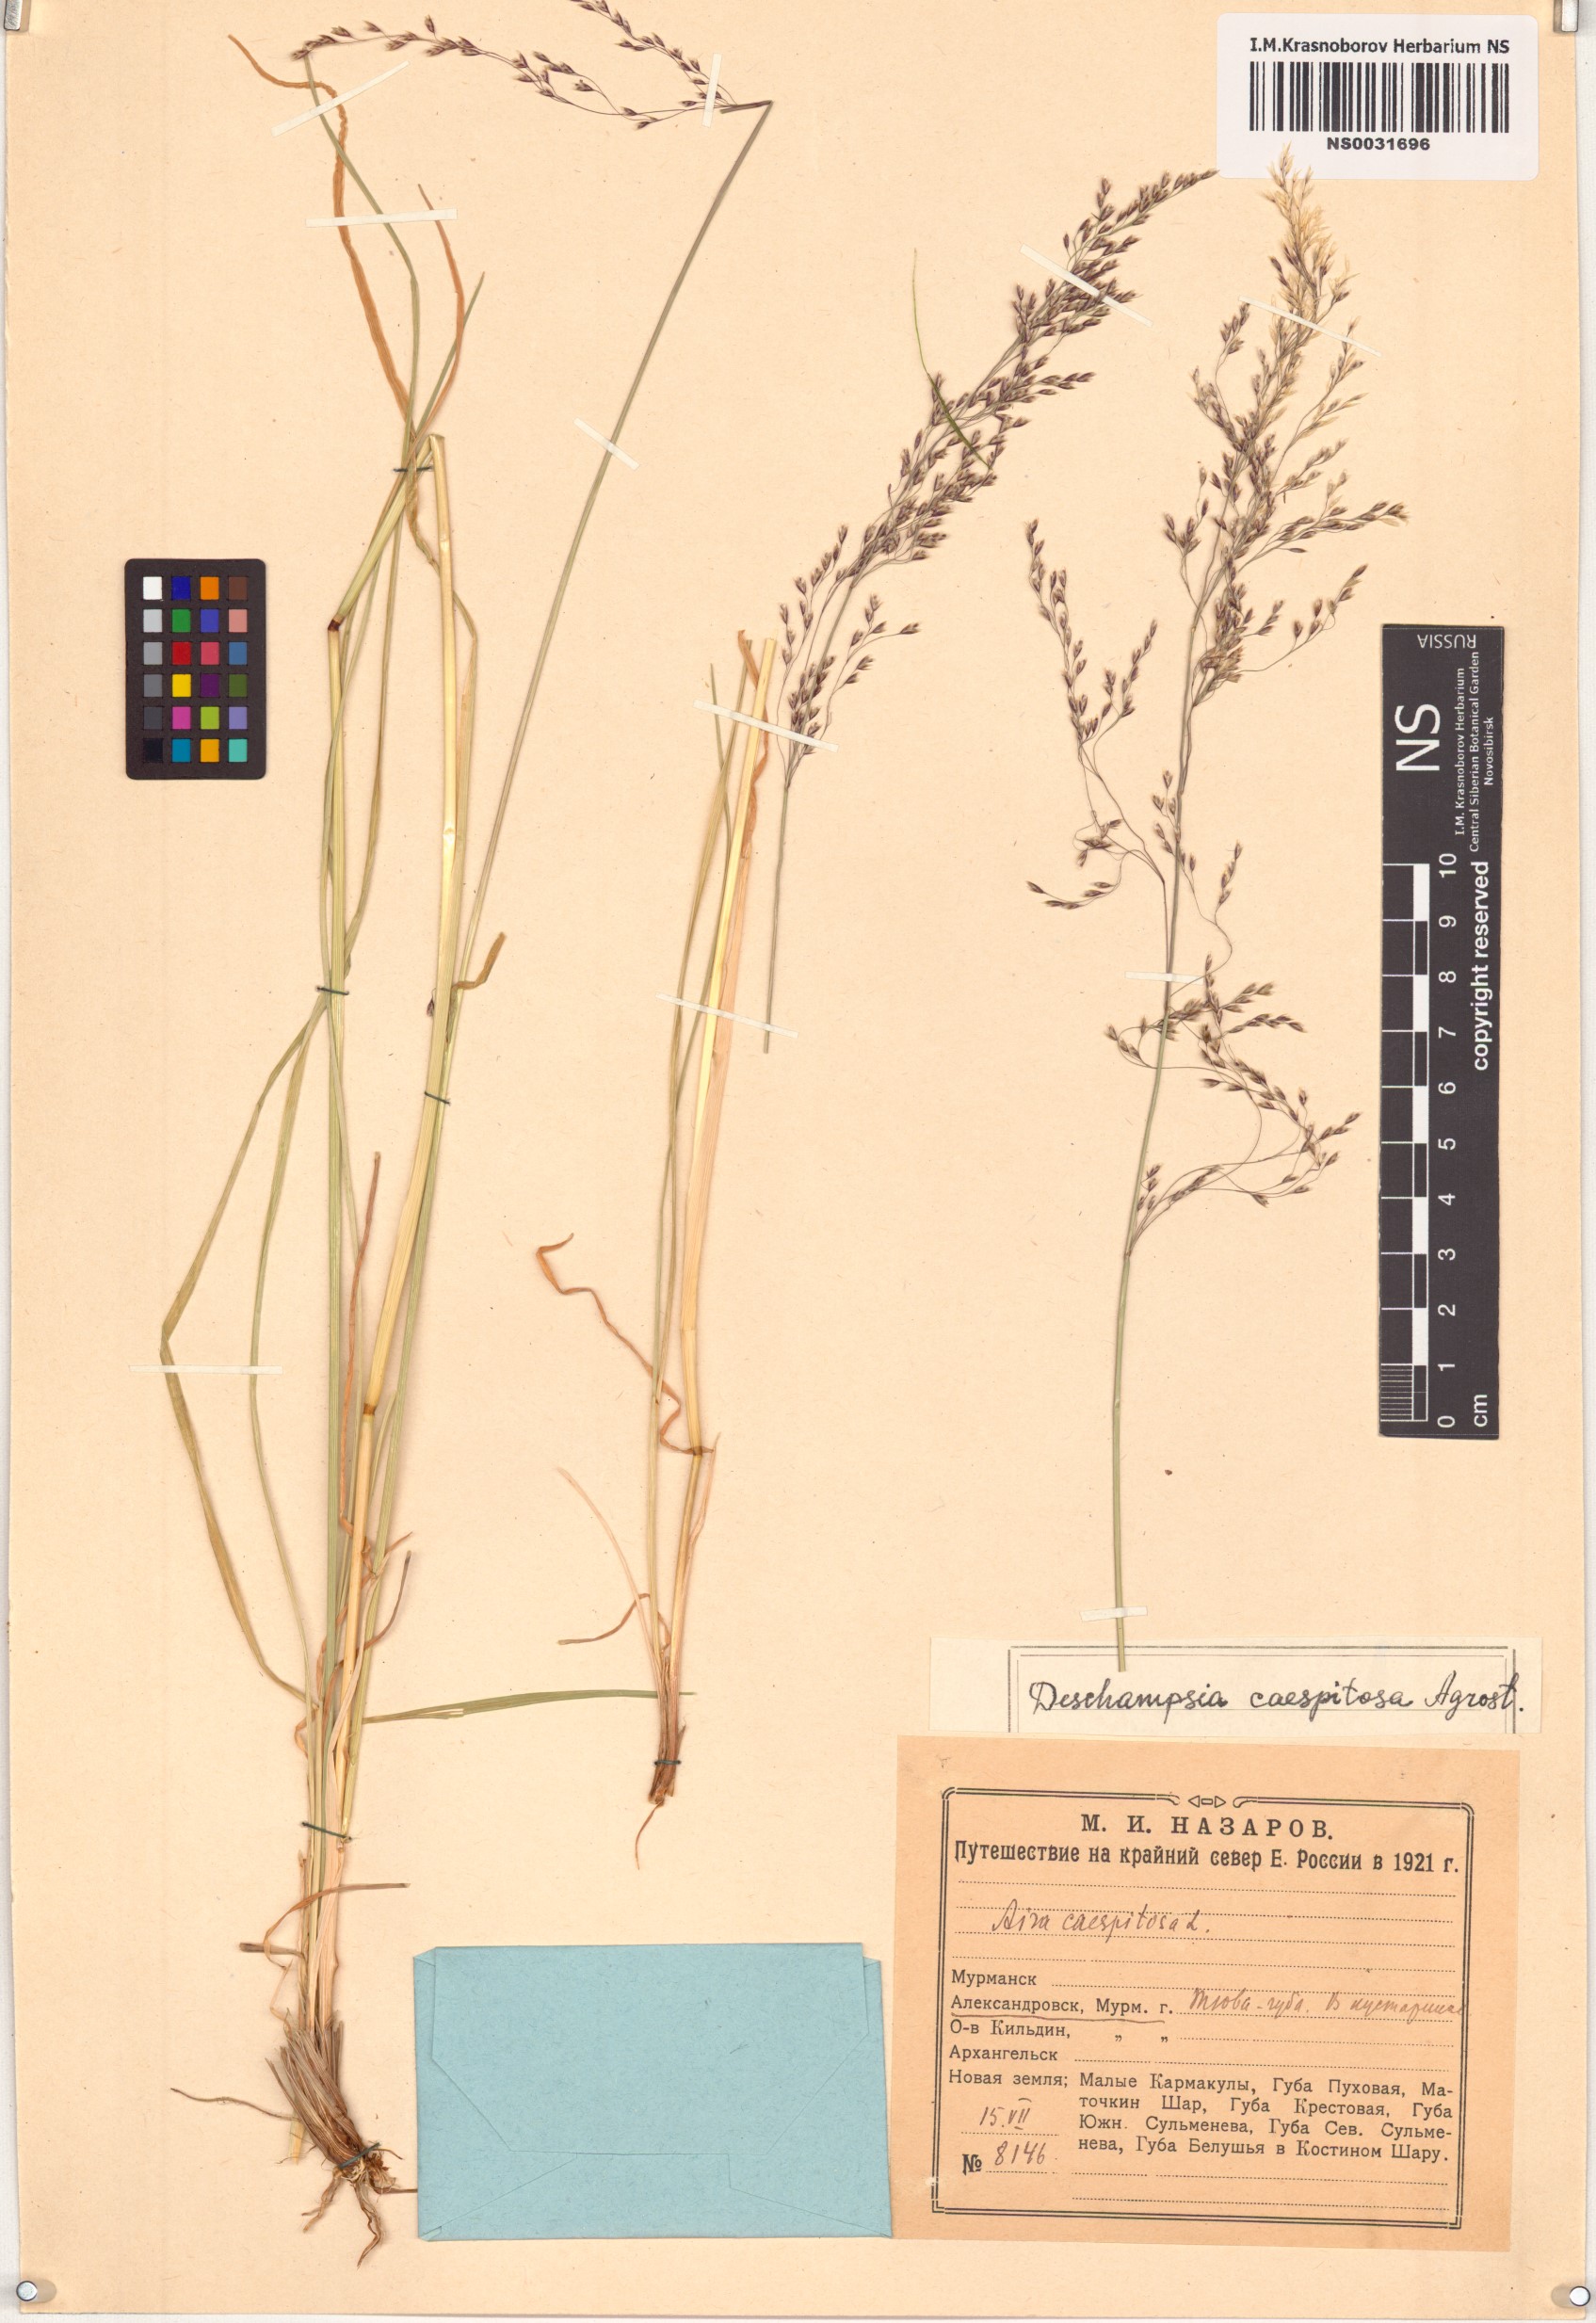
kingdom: Plantae
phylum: Tracheophyta
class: Liliopsida
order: Poales
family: Poaceae
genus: Deschampsia
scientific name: Deschampsia cespitosa
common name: Tufted hair-grass
